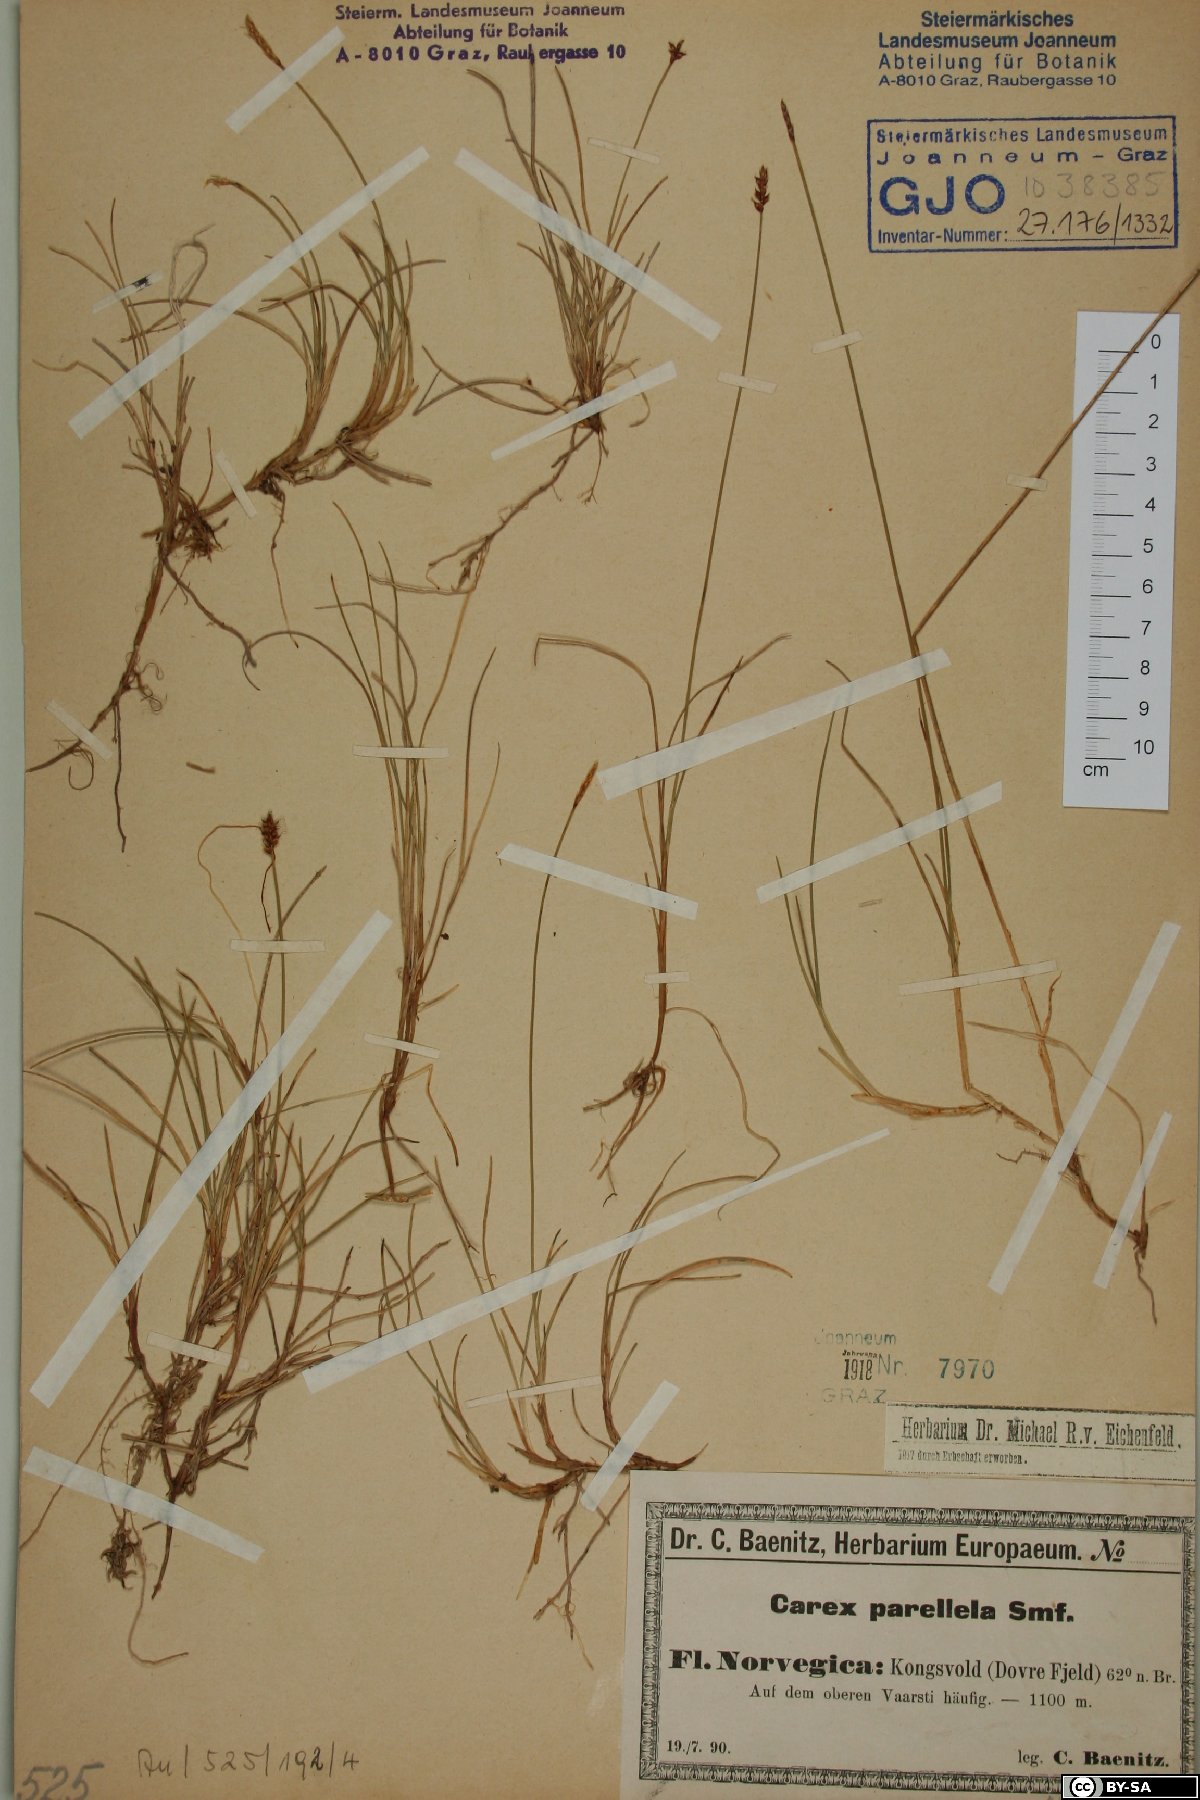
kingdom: Plantae
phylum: Tracheophyta
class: Liliopsida
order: Poales
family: Cyperaceae
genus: Carex
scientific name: Carex parallela
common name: Parallel sedge
